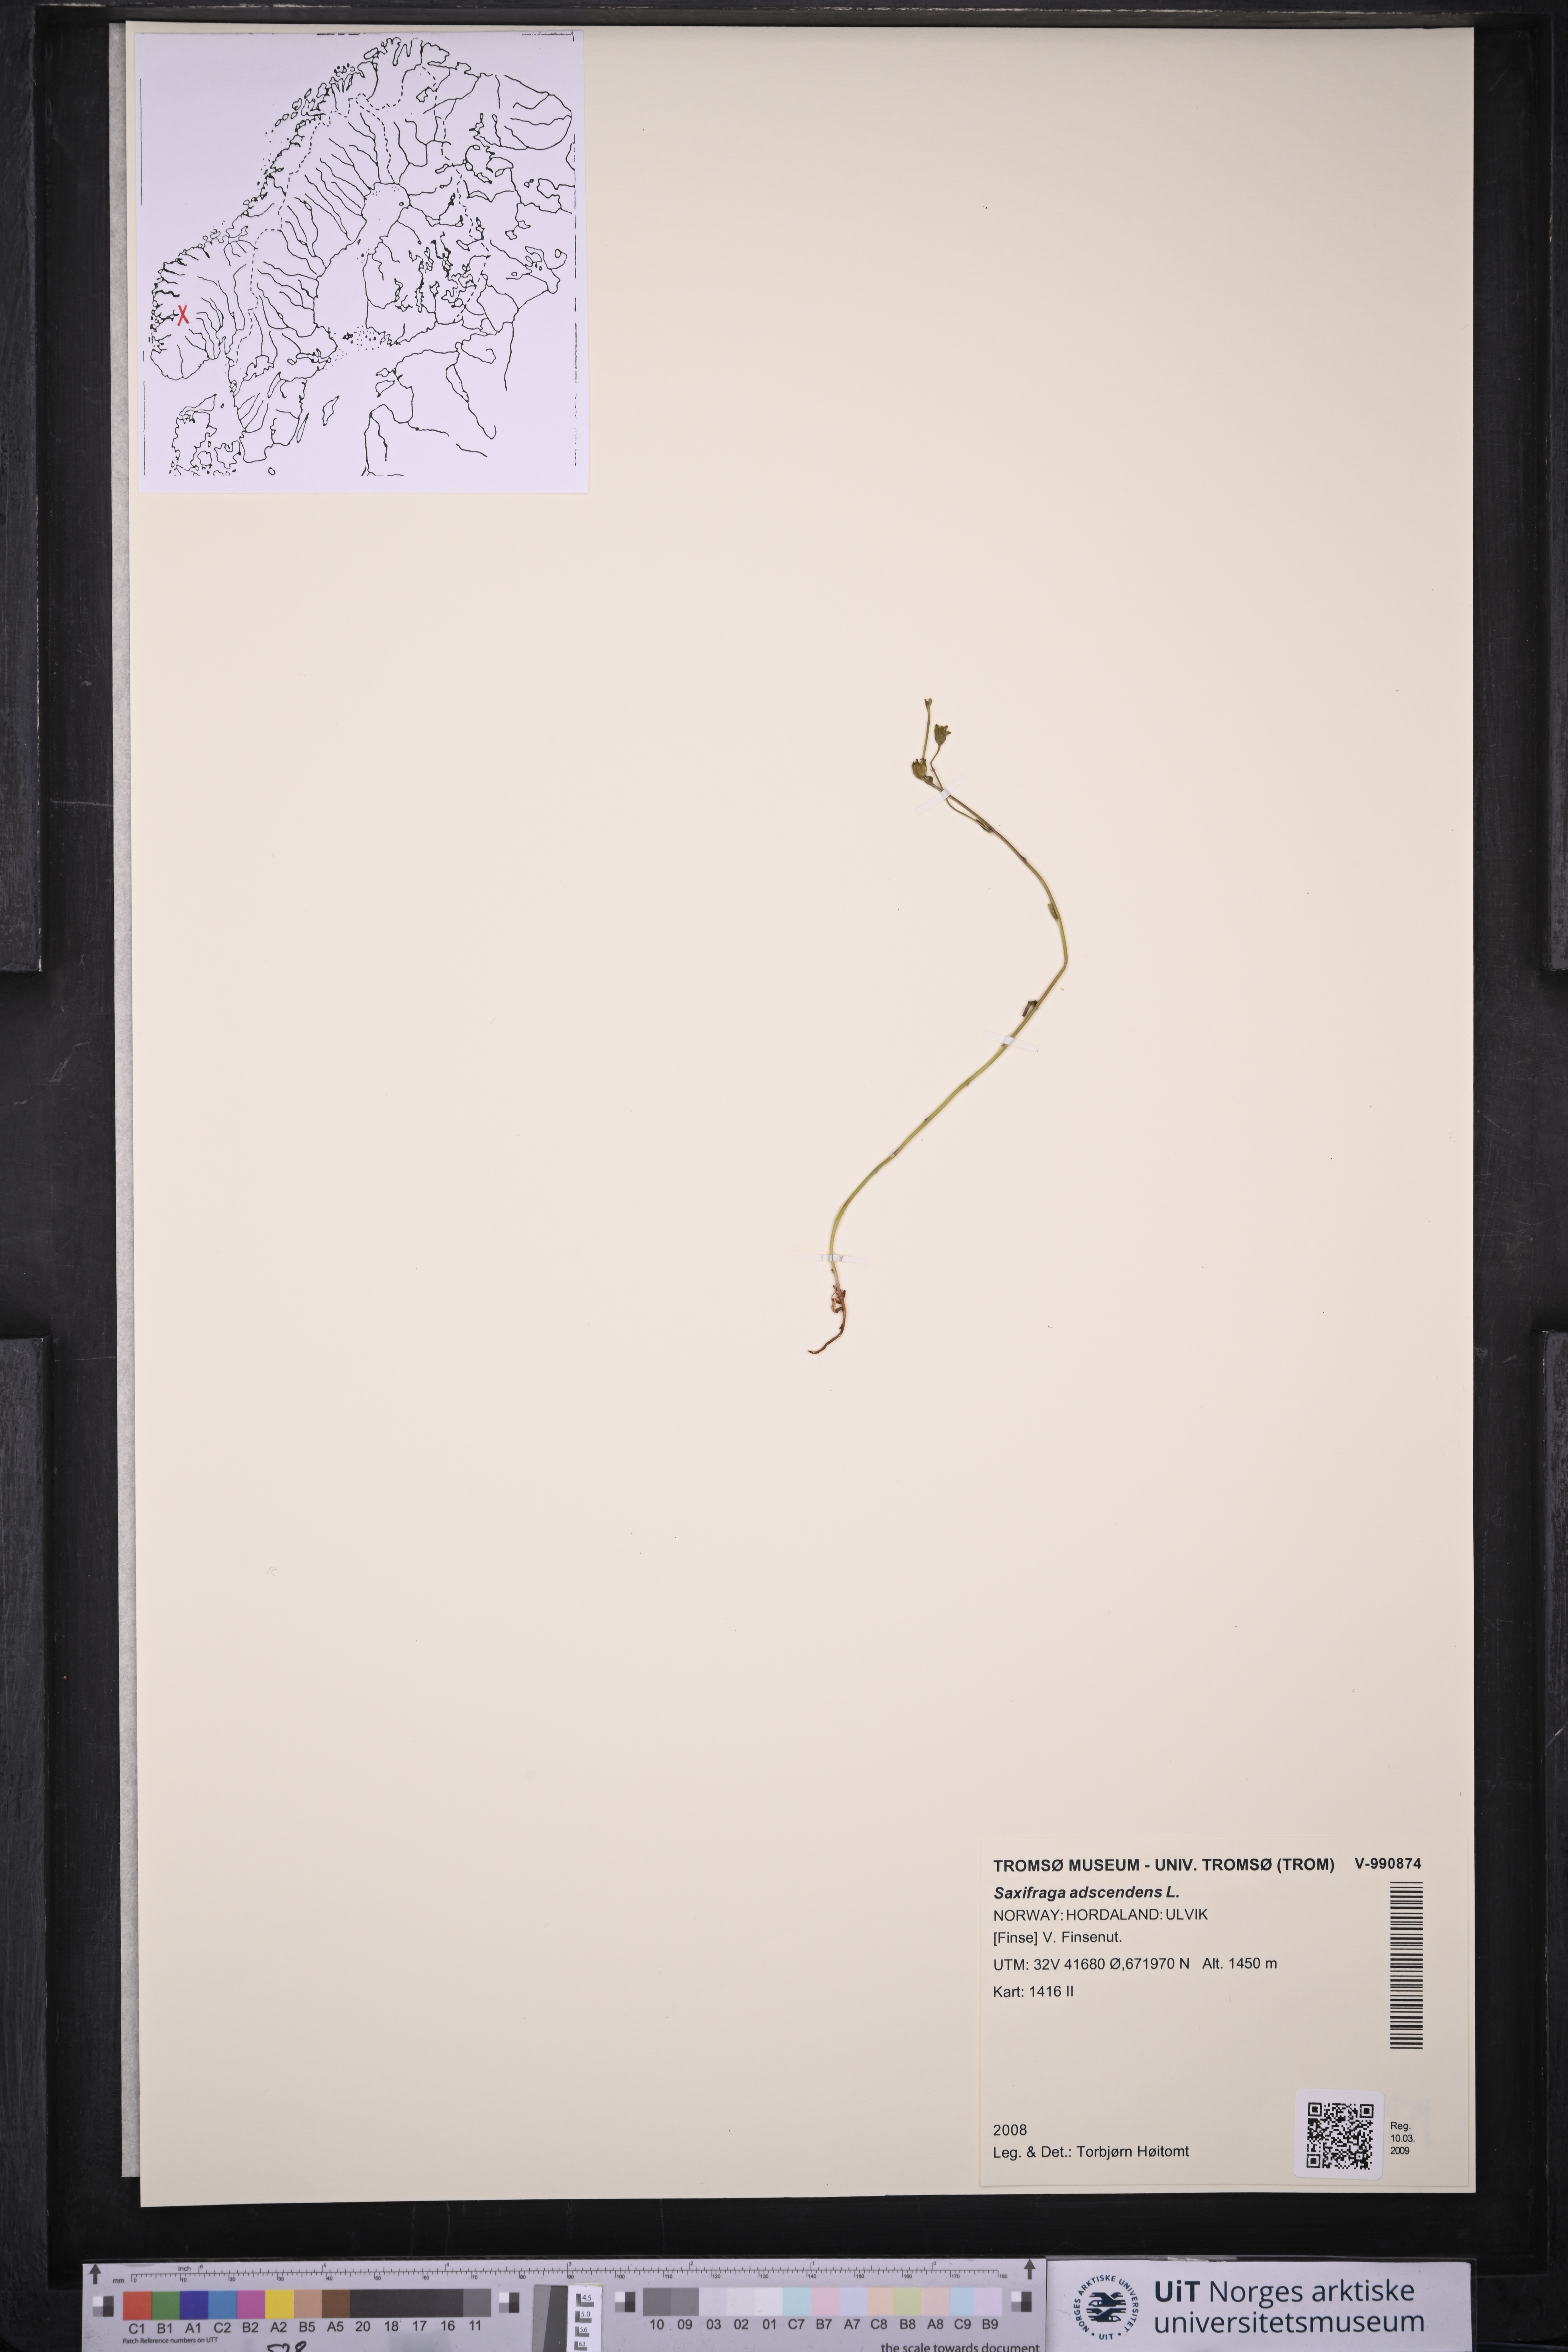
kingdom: Plantae
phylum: Tracheophyta
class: Magnoliopsida
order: Saxifragales
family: Saxifragaceae
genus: Saxifraga
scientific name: Saxifraga adscendens
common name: Ascending saxifrage
